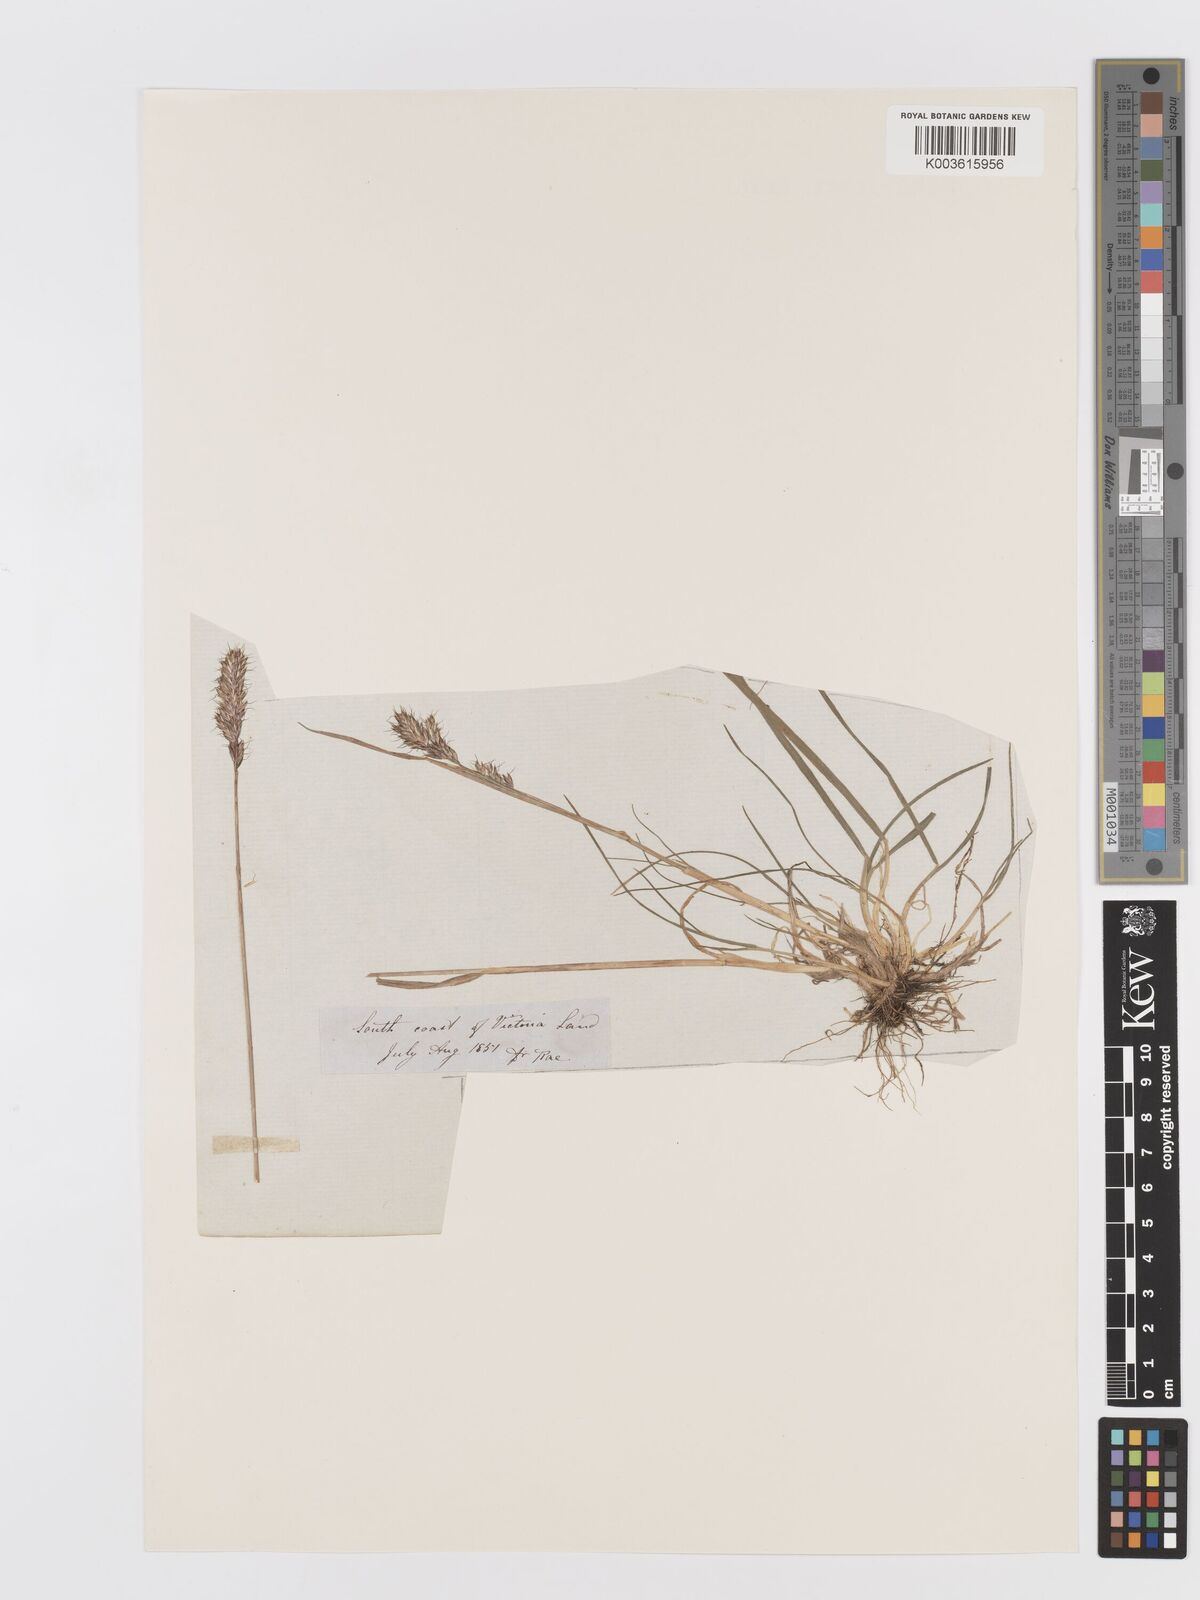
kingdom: Plantae
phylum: Tracheophyta
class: Liliopsida
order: Poales
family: Poaceae
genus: Koeleria
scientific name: Koeleria spicata
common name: Mountain trisetum
